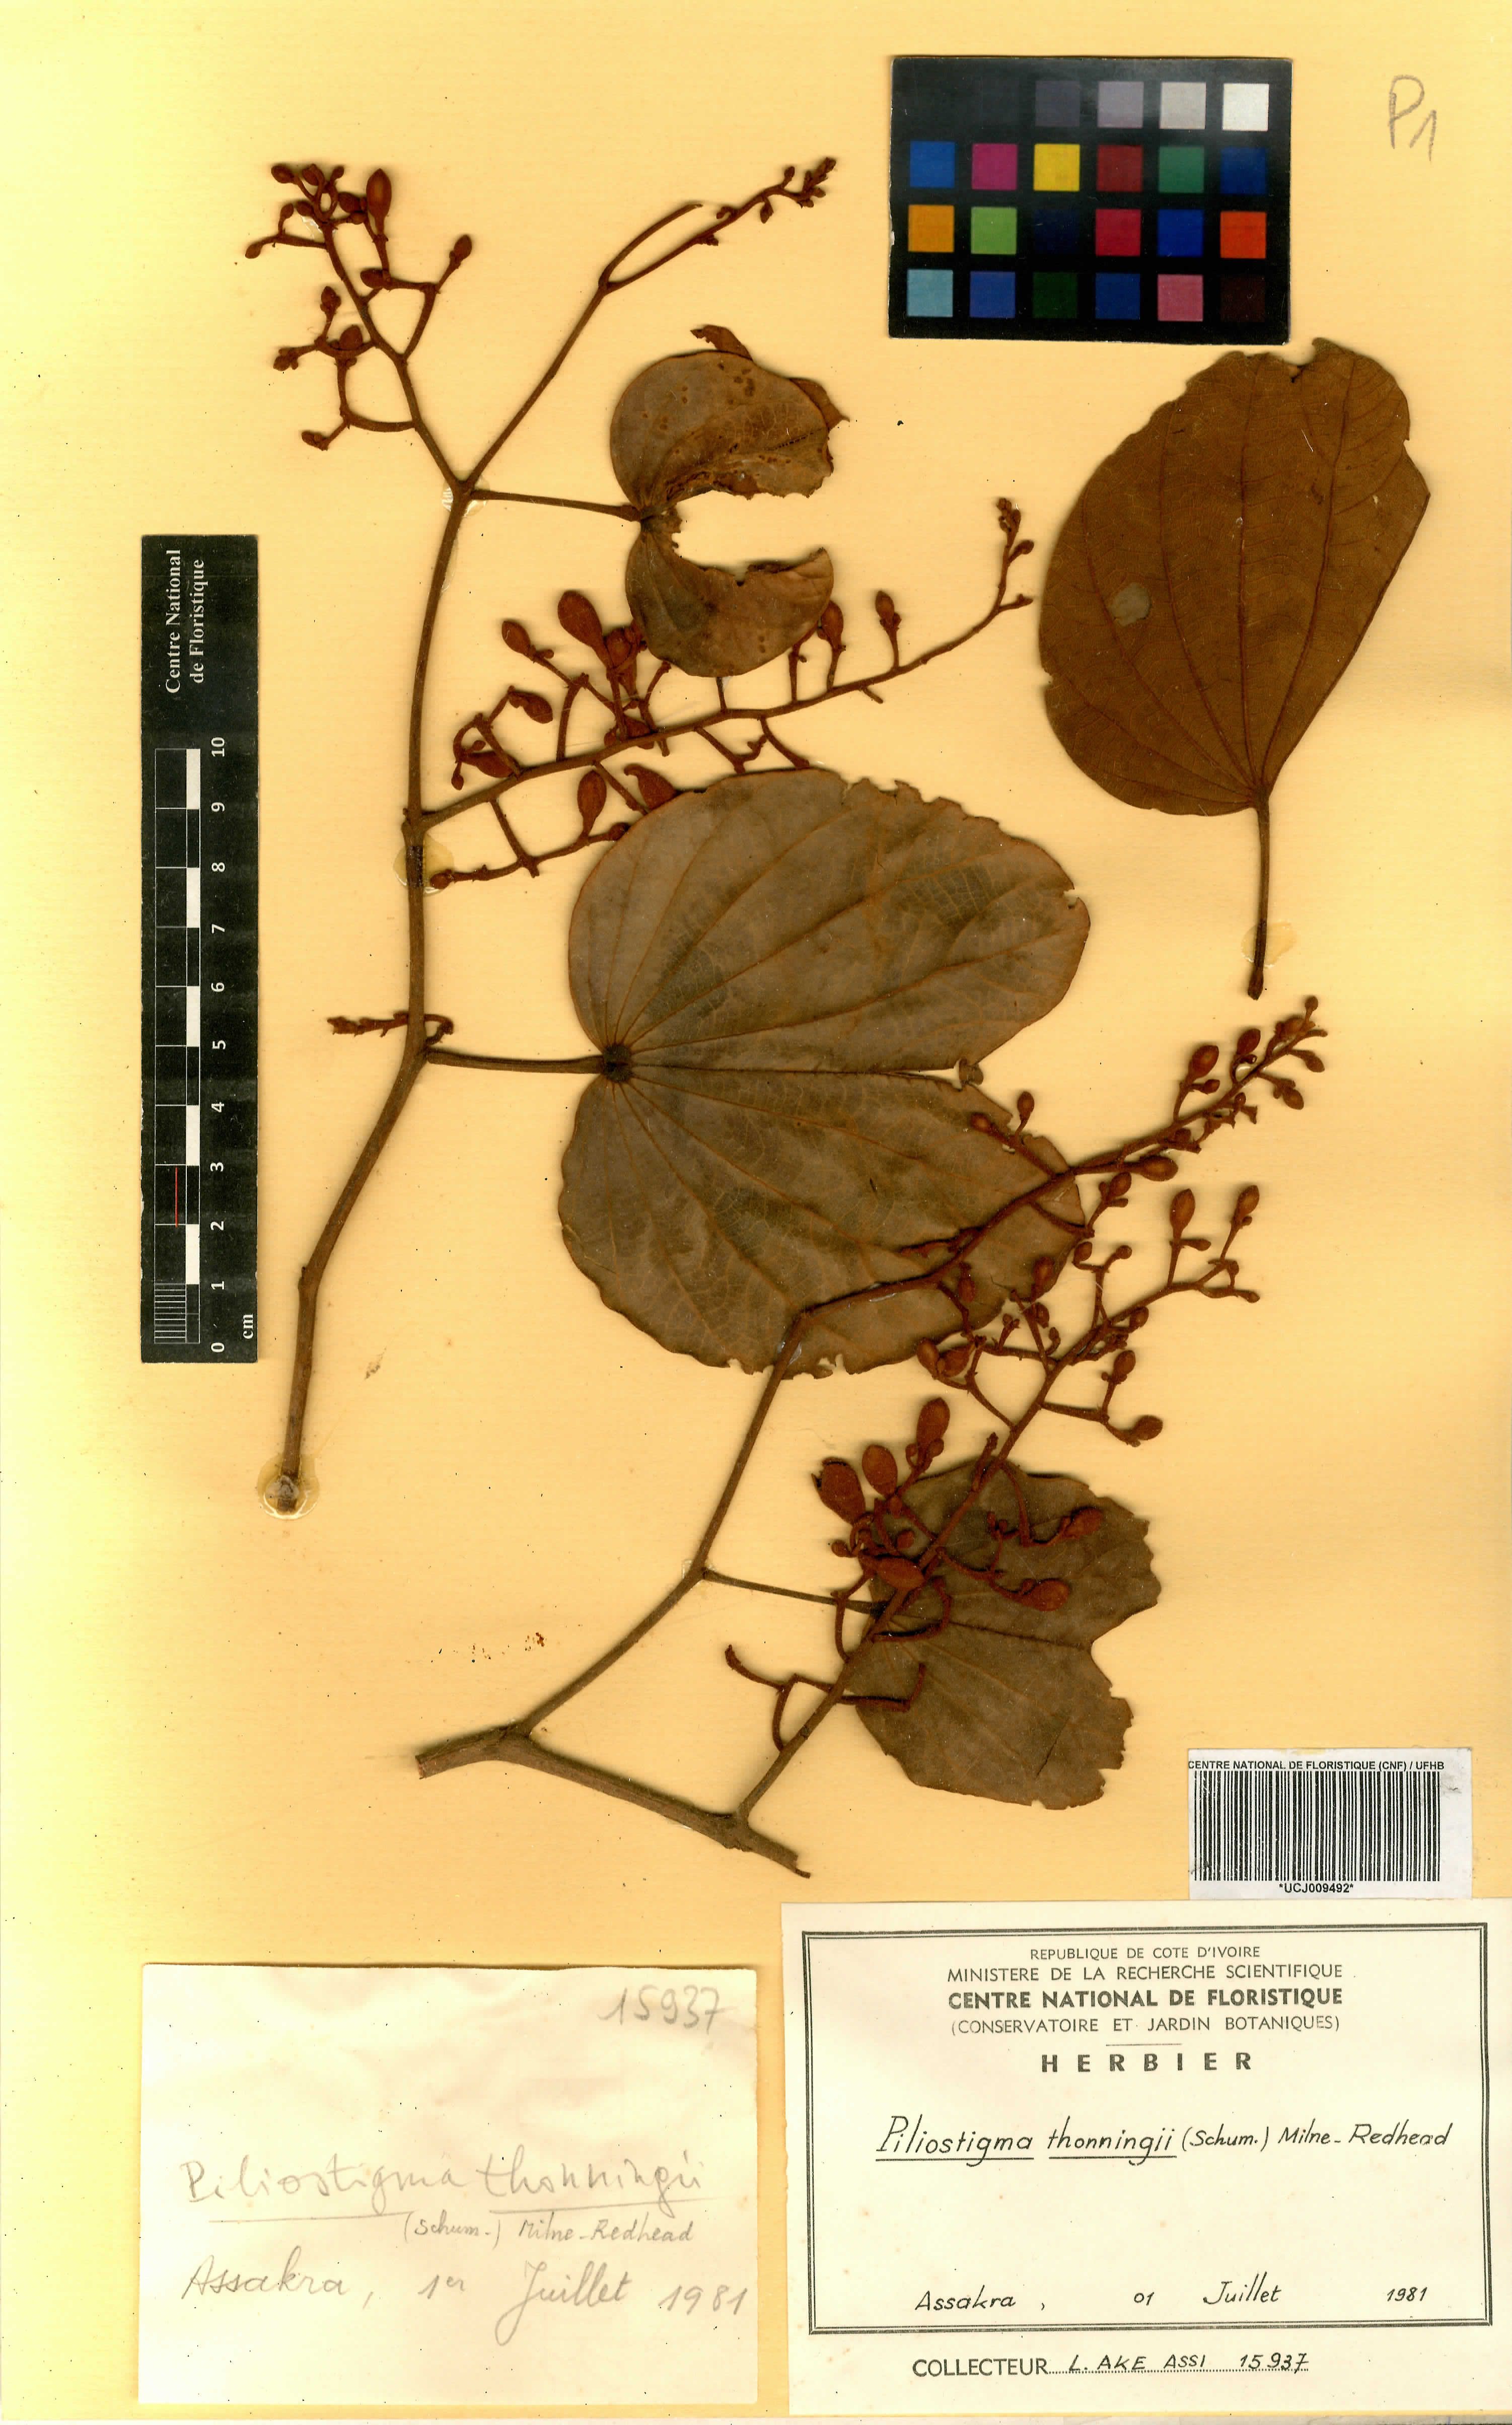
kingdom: Plantae
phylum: Tracheophyta
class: Magnoliopsida
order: Fabales
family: Fabaceae
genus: Piliostigma
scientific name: Piliostigma thonningii
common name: Kao
